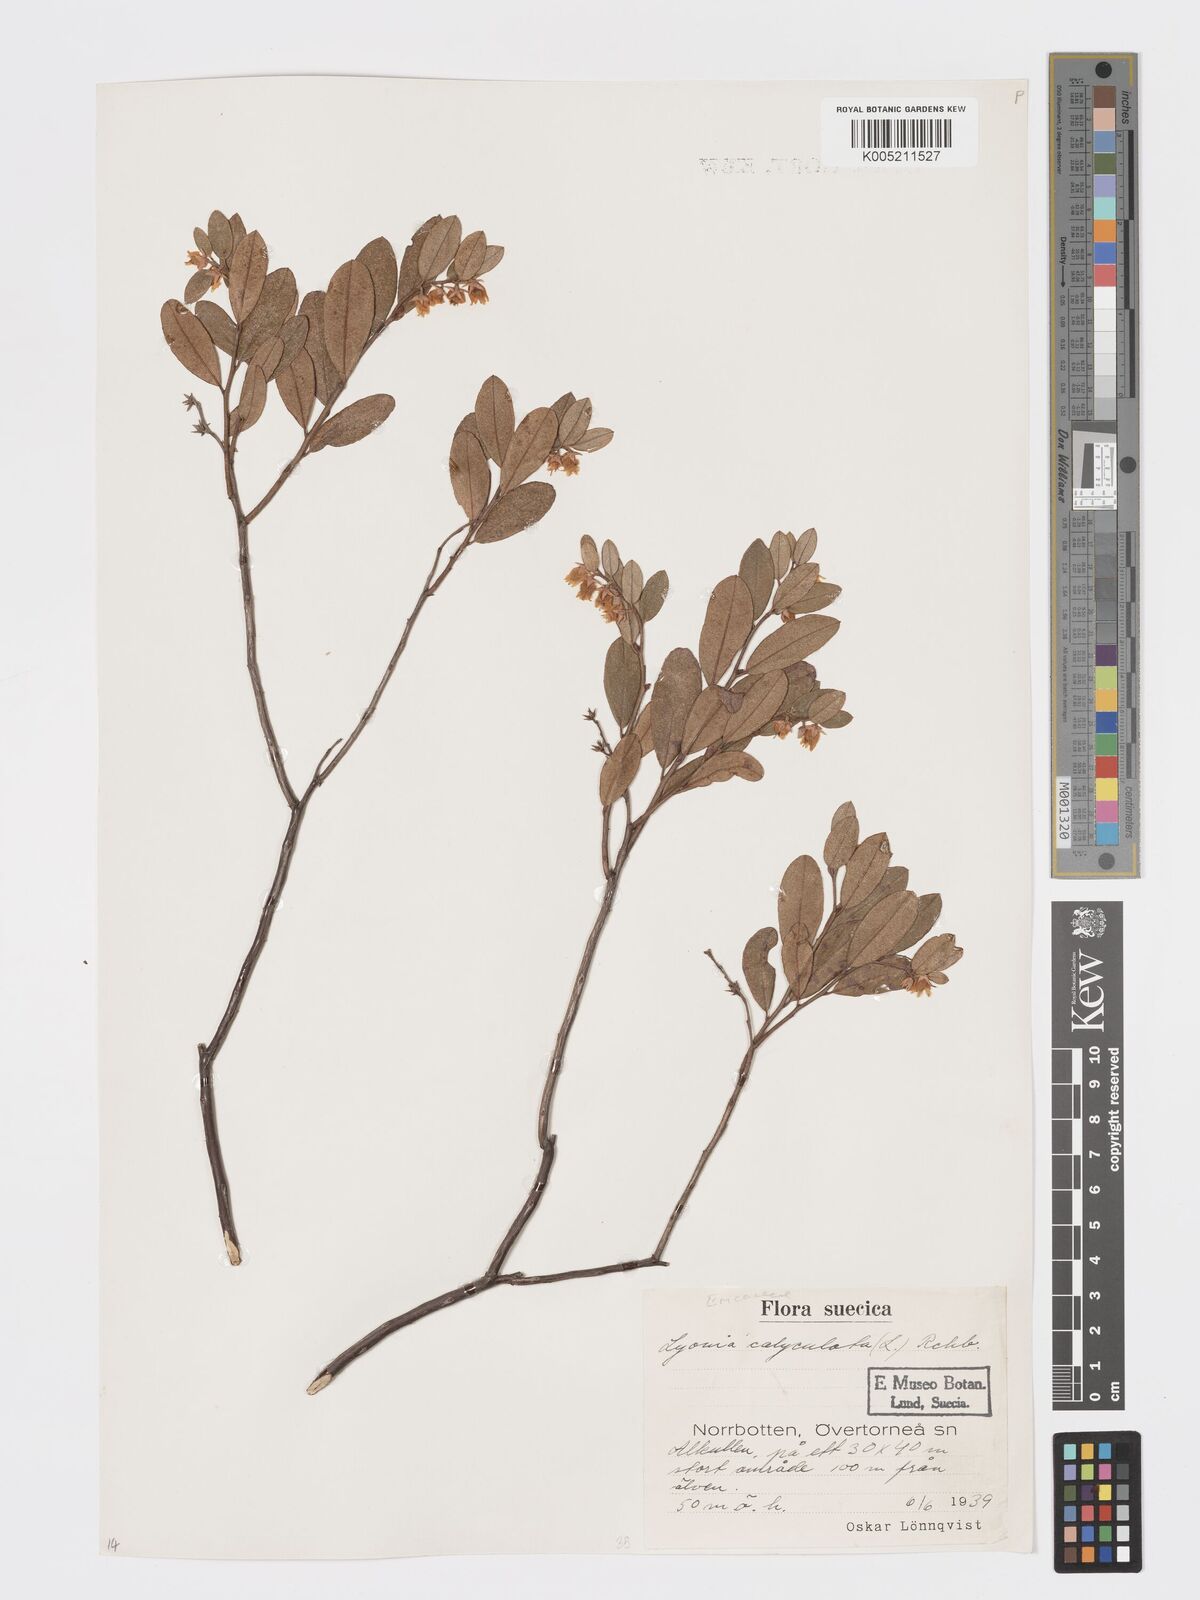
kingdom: Plantae
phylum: Tracheophyta
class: Magnoliopsida
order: Ericales
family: Ericaceae
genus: Chamaedaphne
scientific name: Chamaedaphne calyculata
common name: Leatherleaf
